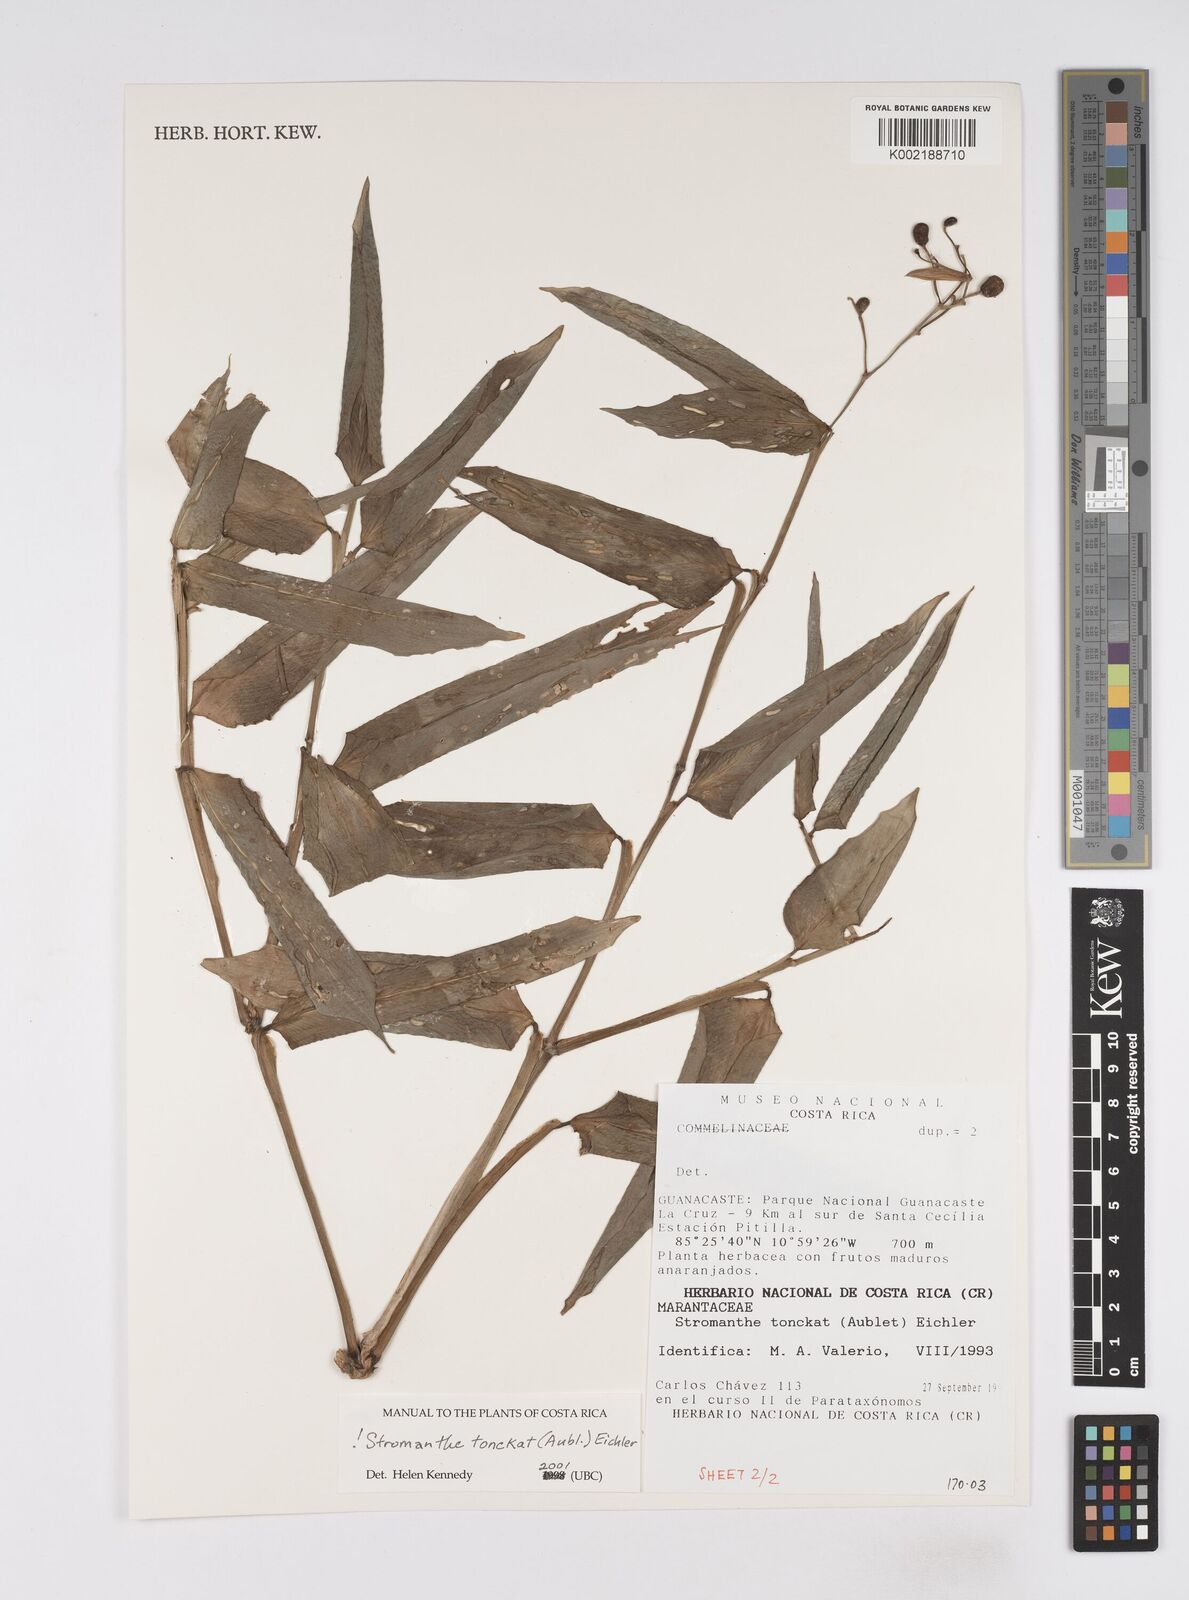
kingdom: Plantae
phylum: Tracheophyta
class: Liliopsida
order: Zingiberales
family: Marantaceae
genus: Stromanthe
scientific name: Stromanthe tonckat
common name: Stromanthe
